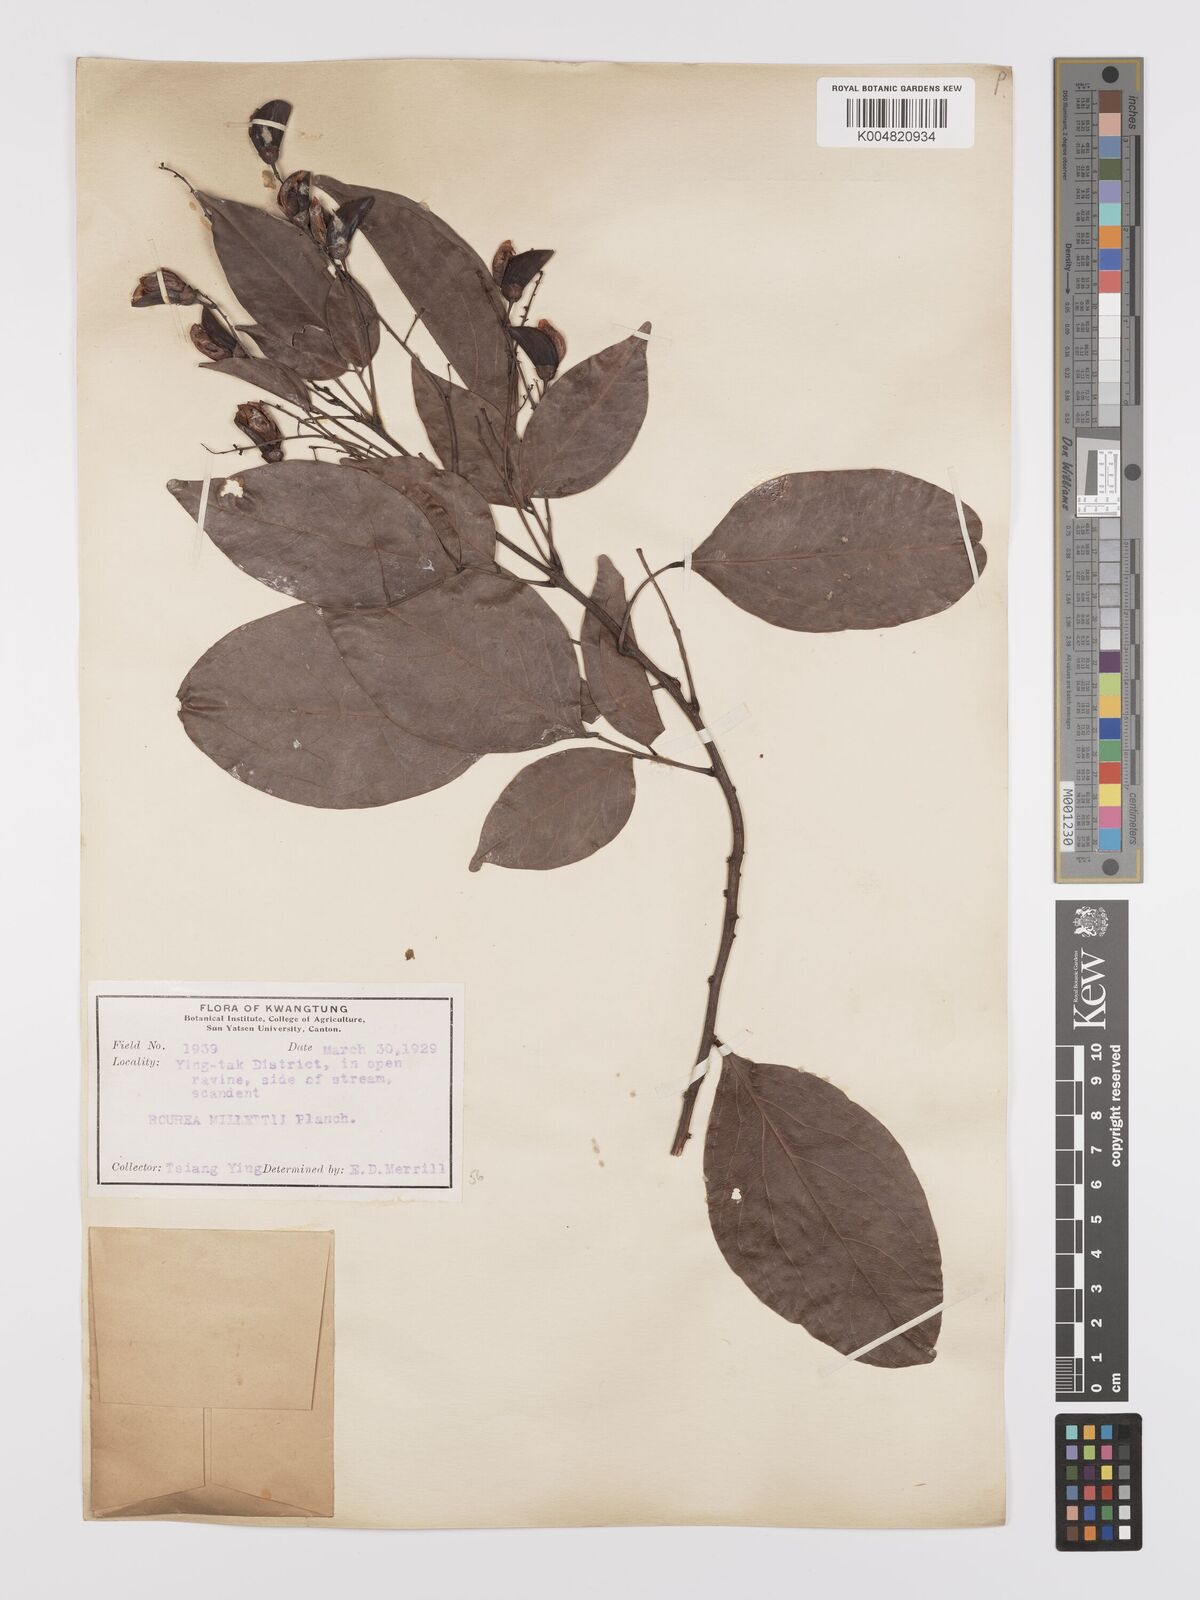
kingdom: Plantae
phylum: Tracheophyta
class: Magnoliopsida
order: Oxalidales
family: Connaraceae
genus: Rourea
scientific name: Rourea
